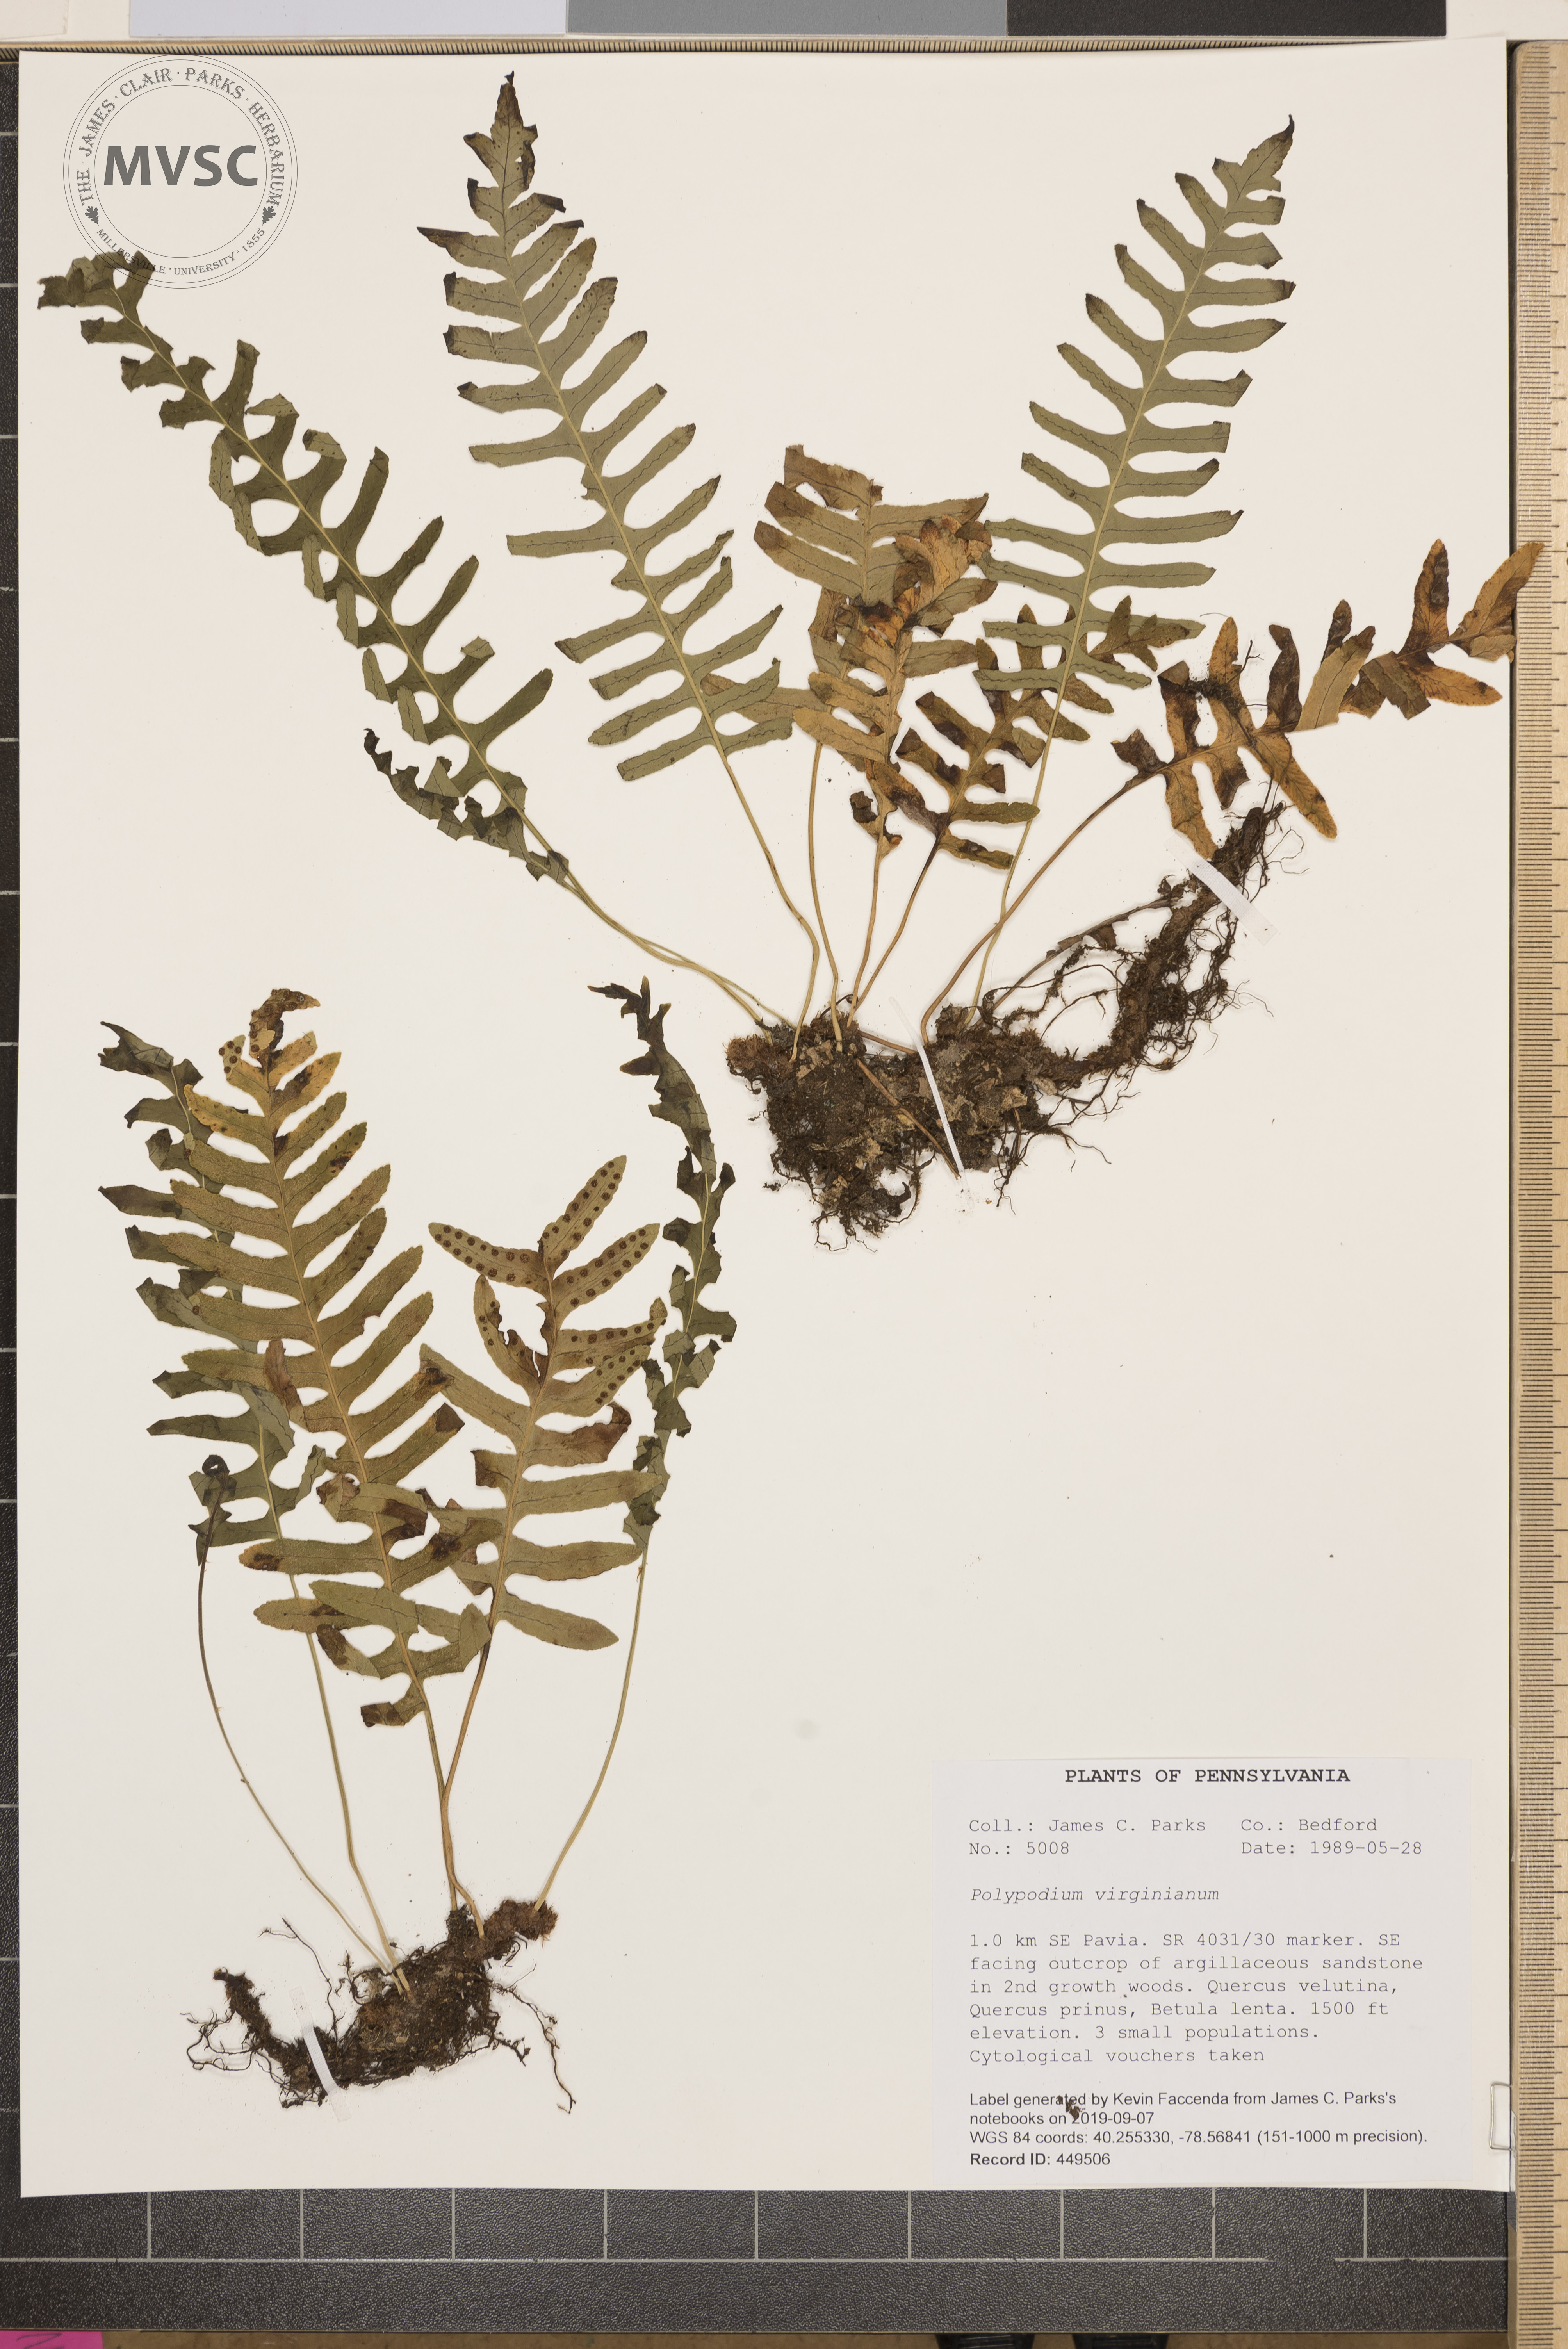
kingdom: Plantae
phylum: Tracheophyta
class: Polypodiopsida
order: Polypodiales
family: Polypodiaceae
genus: Polypodium
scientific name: Polypodium virginianum
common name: American wall fern
